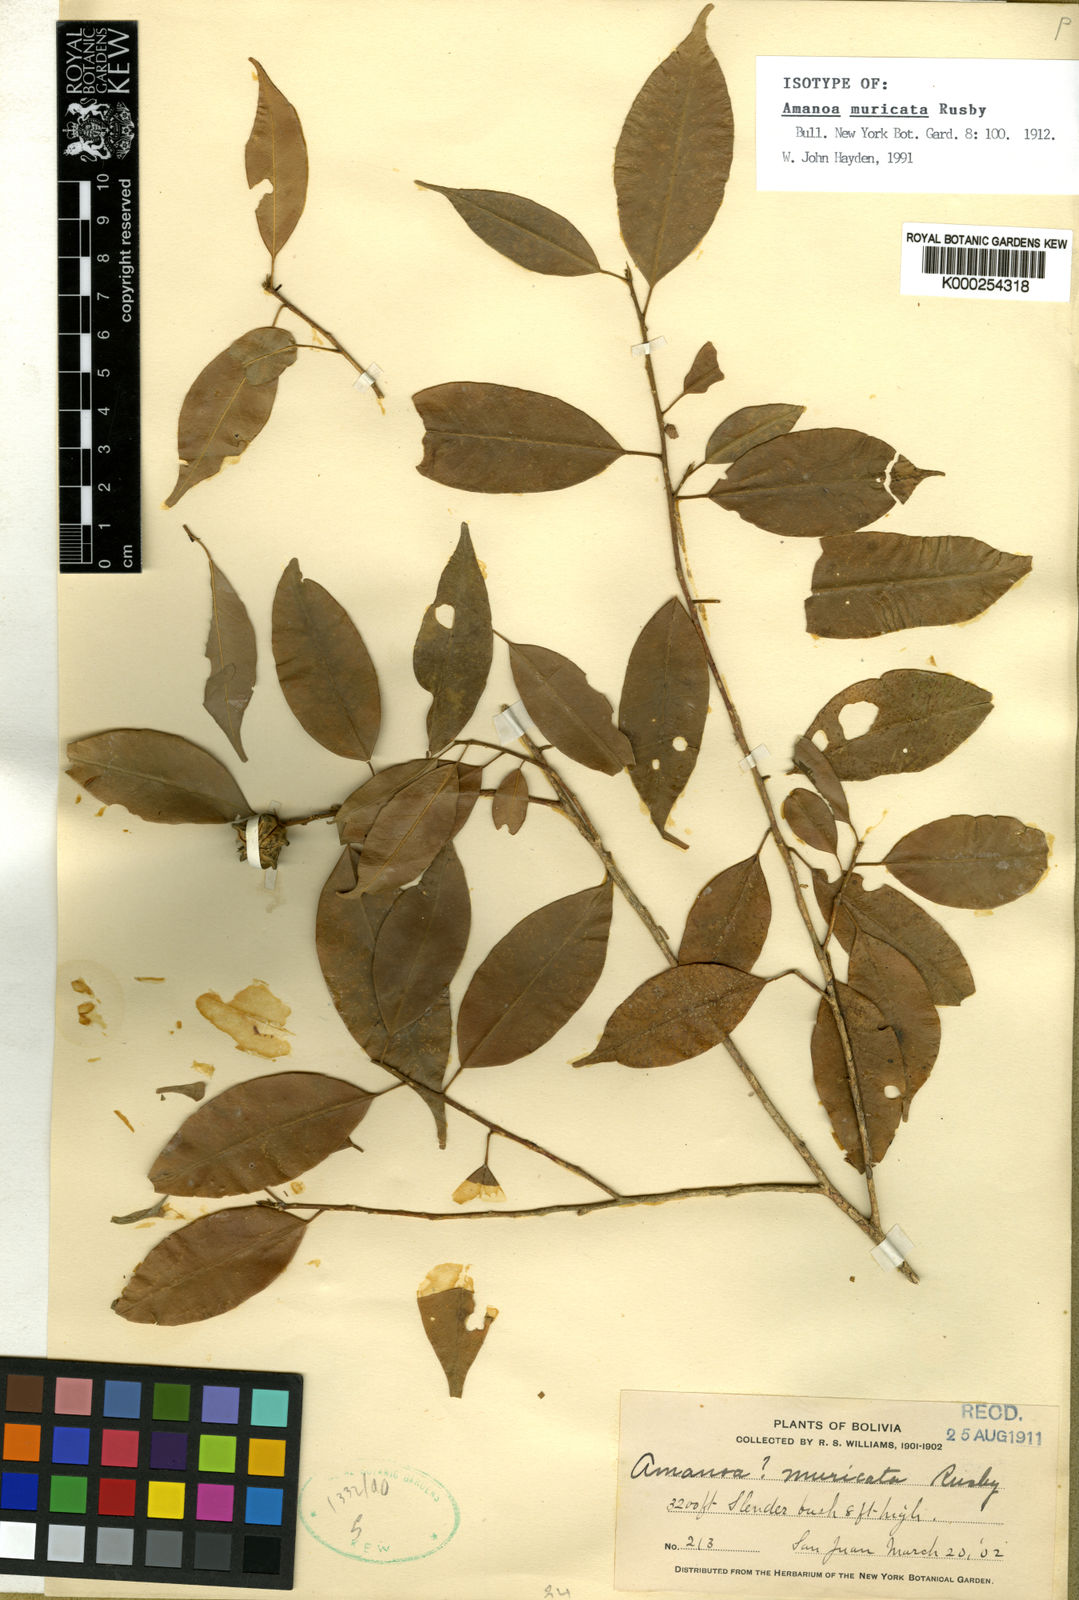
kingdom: Plantae
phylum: Tracheophyta
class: Magnoliopsida
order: Sapindales
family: Rutaceae
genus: Esenbeckia
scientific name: Esenbeckia almawillia
